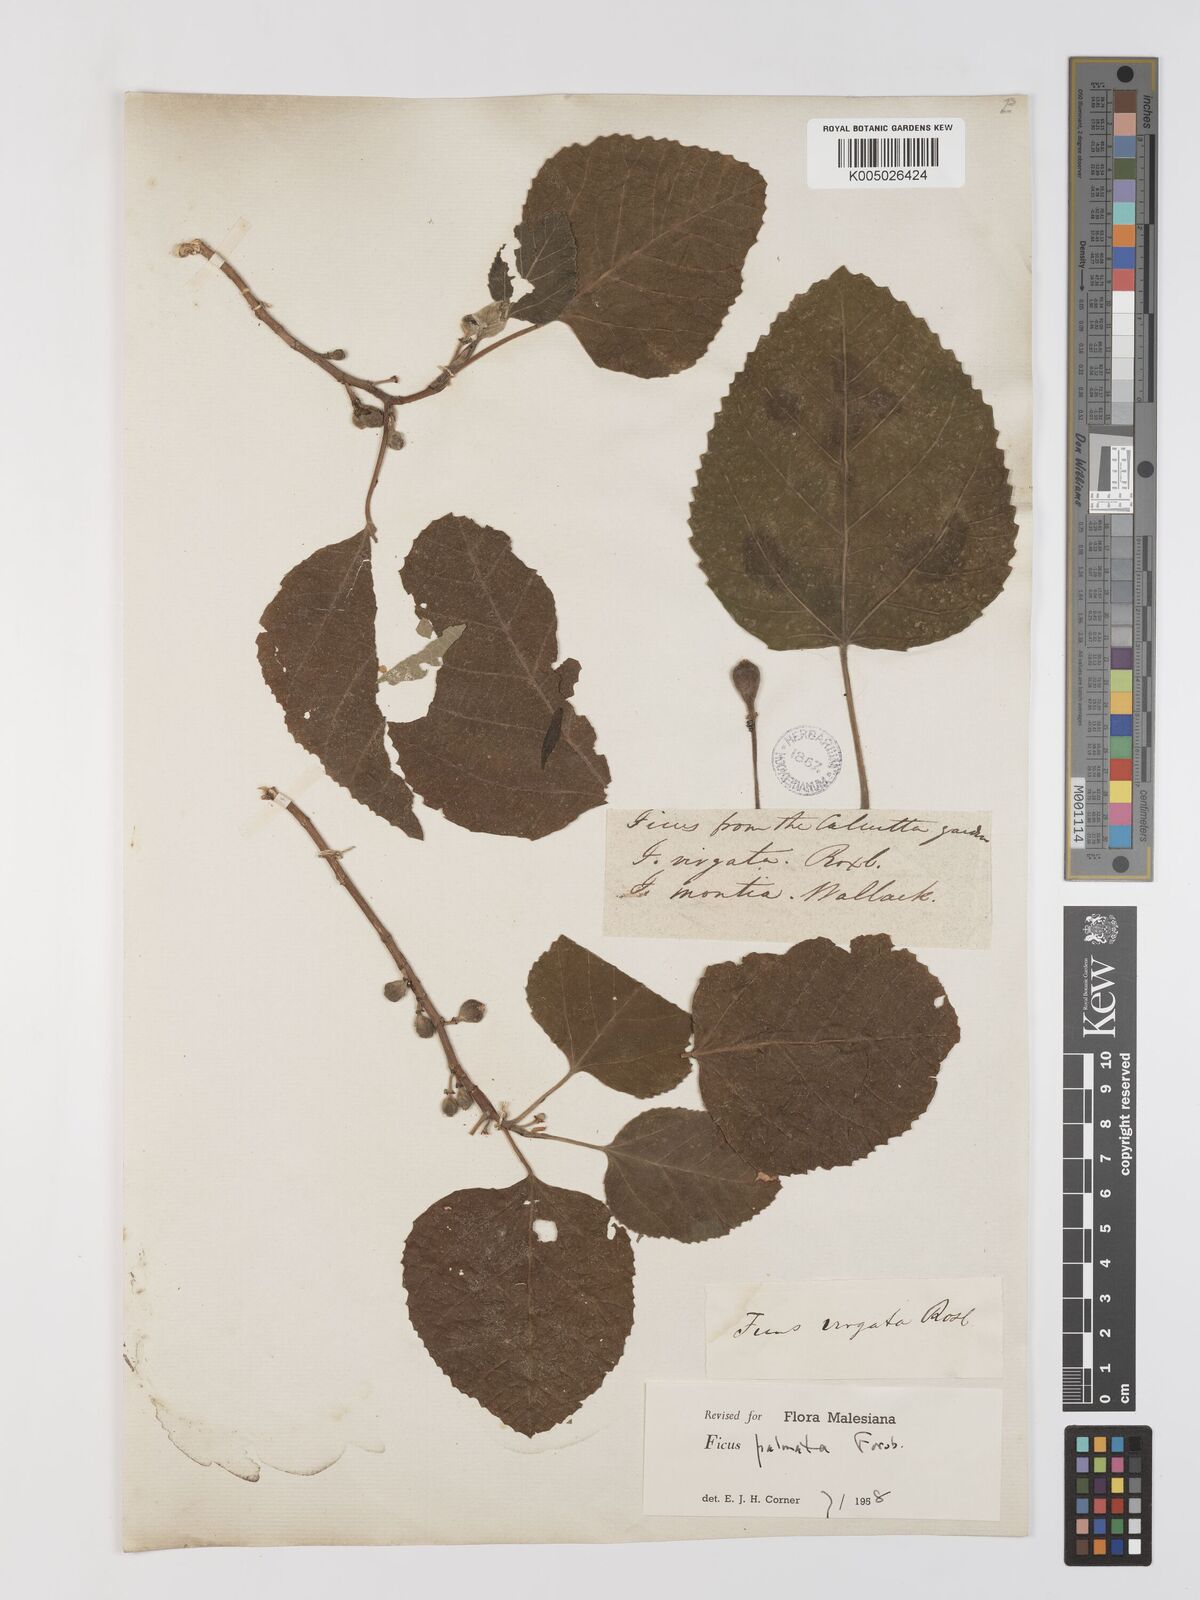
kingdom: Plantae
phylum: Tracheophyta
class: Magnoliopsida
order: Rosales
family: Moraceae
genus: Ficus
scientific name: Ficus
